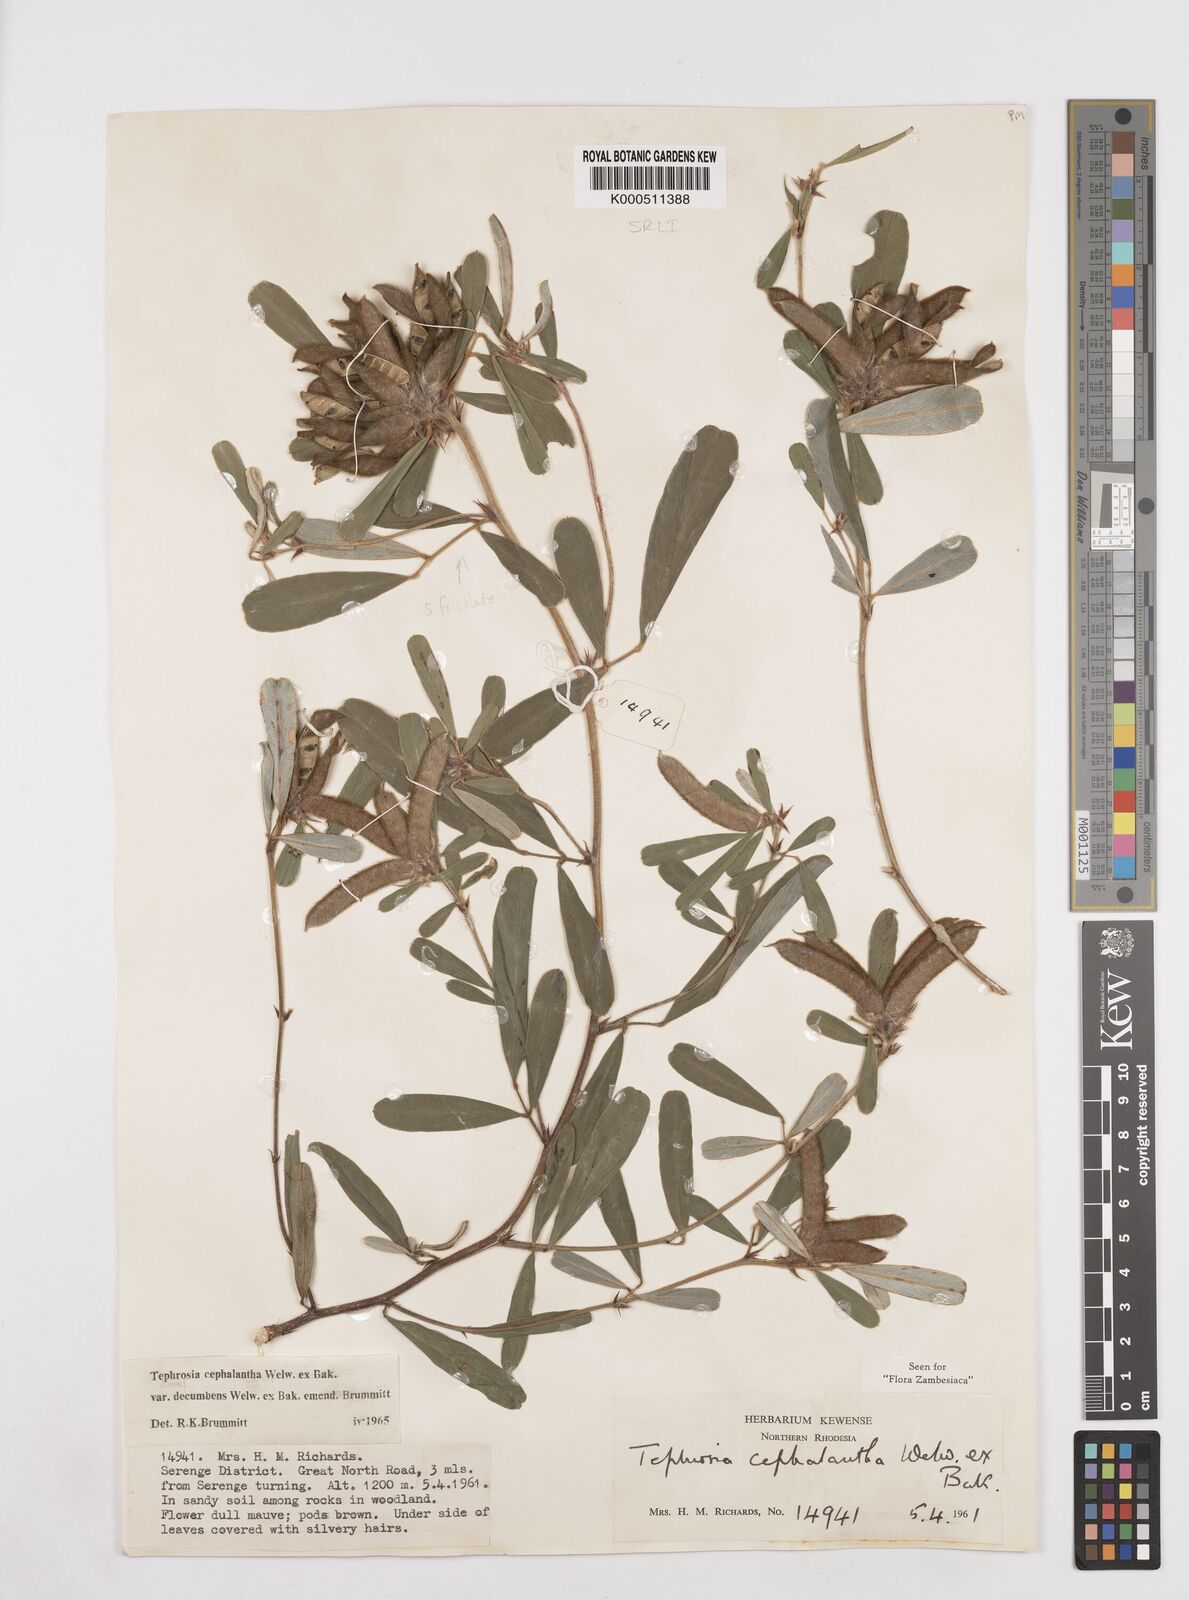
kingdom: Plantae
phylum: Tracheophyta
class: Magnoliopsida
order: Fabales
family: Fabaceae
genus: Tephrosia
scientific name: Tephrosia
